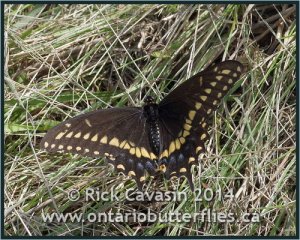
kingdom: Animalia
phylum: Arthropoda
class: Insecta
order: Lepidoptera
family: Papilionidae
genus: Papilio
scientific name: Papilio polyxenes
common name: Black Swallowtail
